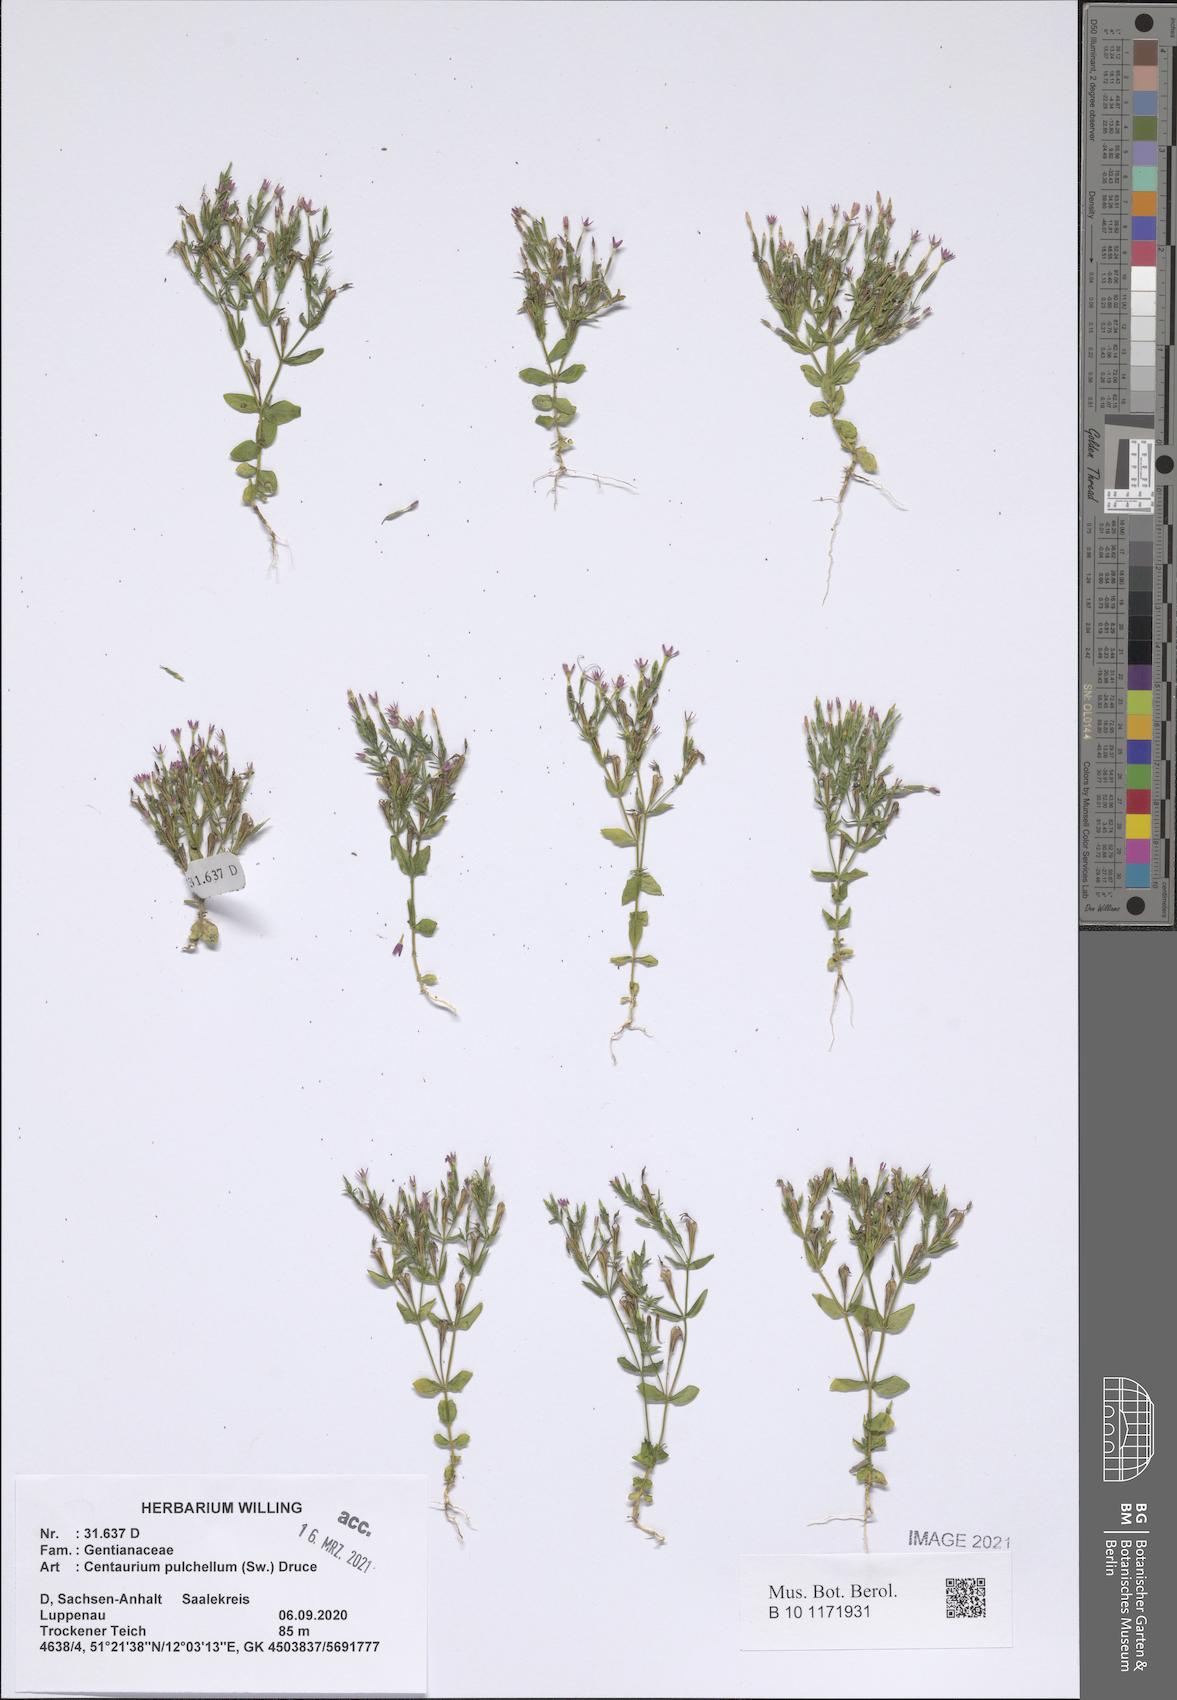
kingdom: Plantae
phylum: Tracheophyta
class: Magnoliopsida
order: Gentianales
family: Gentianaceae
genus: Centaurium
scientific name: Centaurium pulchellum
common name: Lesser centaury
